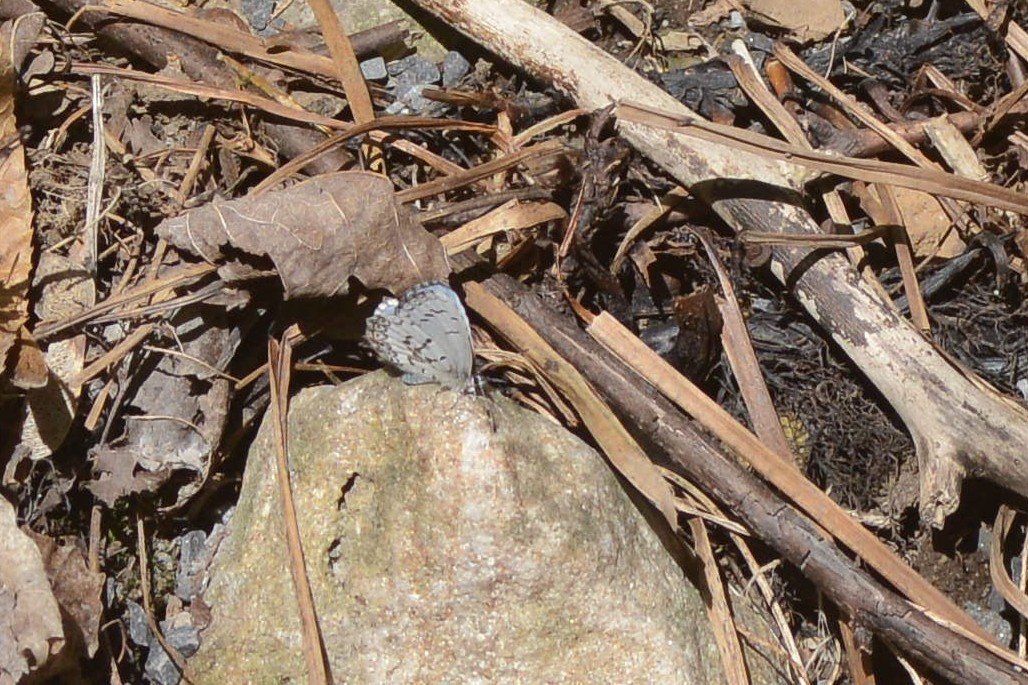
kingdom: Animalia
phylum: Arthropoda
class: Insecta
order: Lepidoptera
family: Lycaenidae
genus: Celastrina
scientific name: Celastrina lucia
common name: Northern Spring Azure
